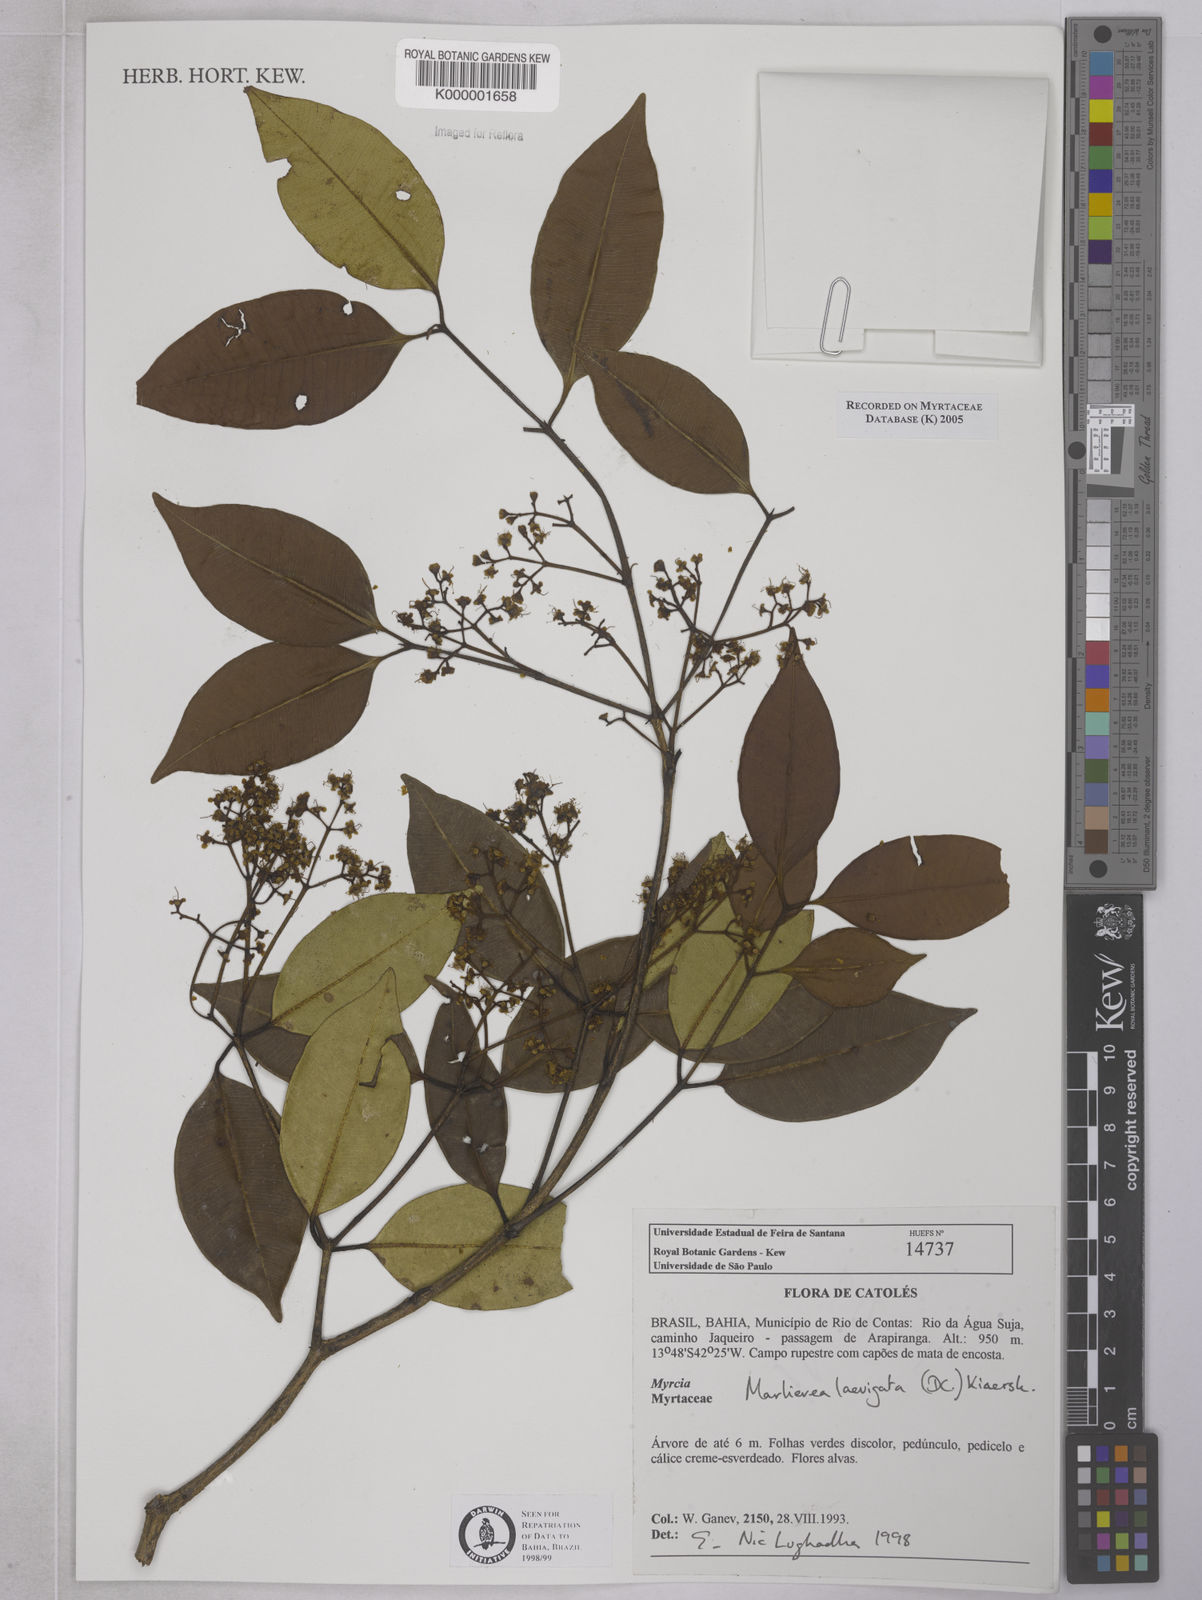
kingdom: Plantae
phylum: Tracheophyta
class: Magnoliopsida
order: Myrtales
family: Myrtaceae
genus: Myrcia
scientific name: Myrcia multipunctata
